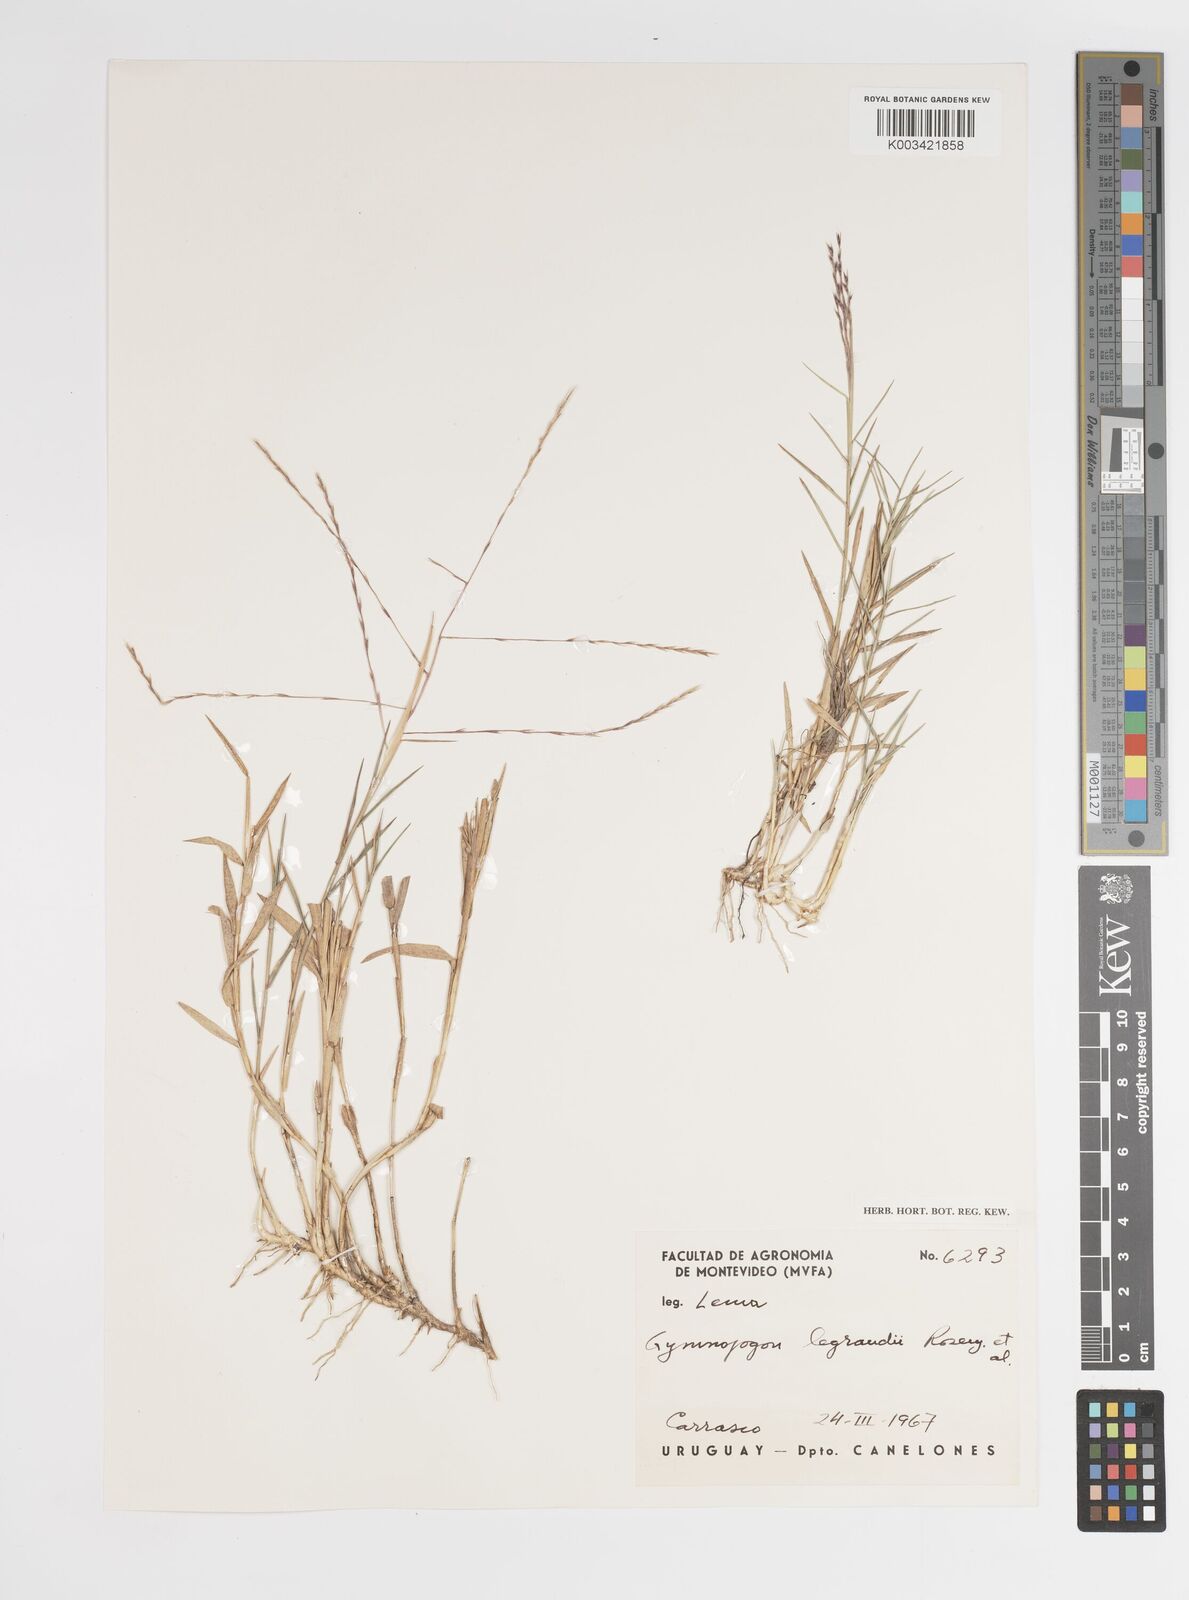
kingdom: Plantae
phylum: Tracheophyta
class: Liliopsida
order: Poales
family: Poaceae
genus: Gymnopogon
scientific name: Gymnopogon legrandii
